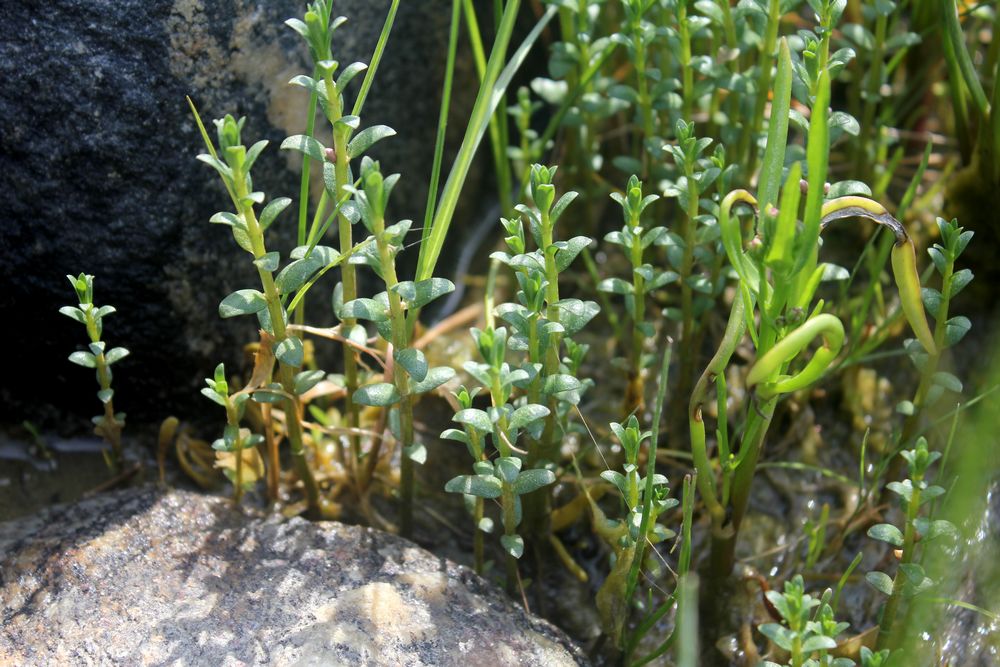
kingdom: Plantae
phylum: Tracheophyta
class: Magnoliopsida
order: Ericales
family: Primulaceae
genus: Lysimachia
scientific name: Lysimachia maritima
